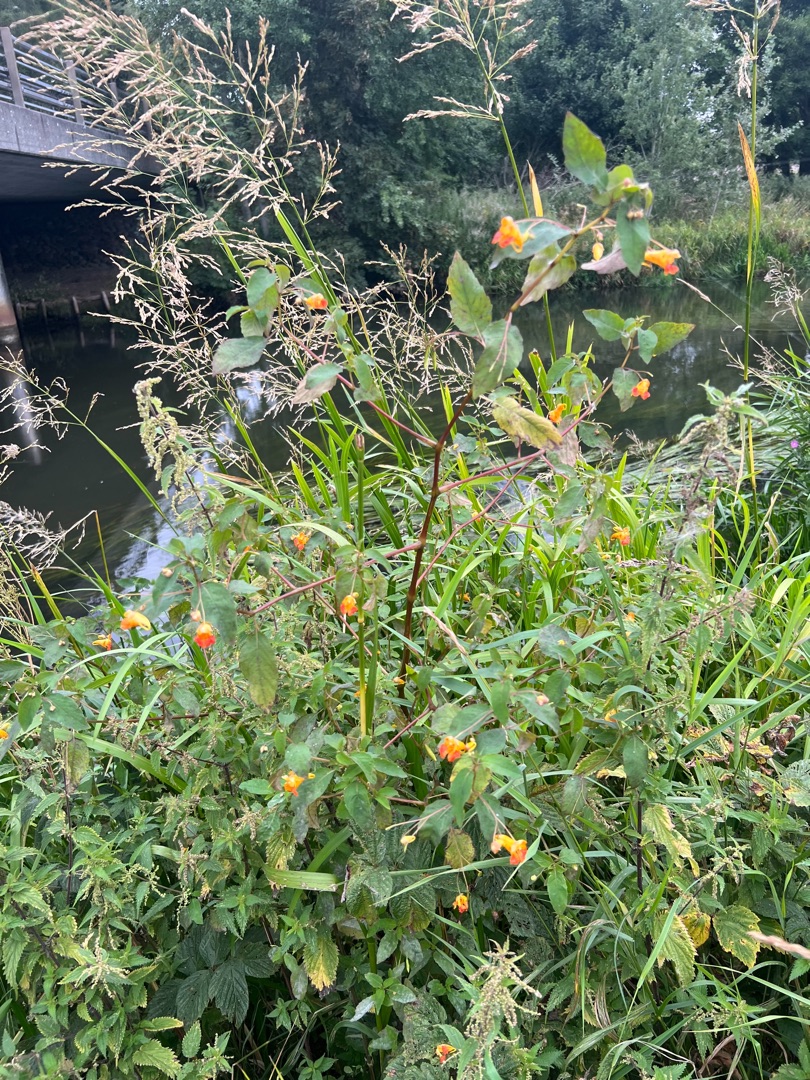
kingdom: Plantae
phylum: Tracheophyta
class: Magnoliopsida
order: Ericales
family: Balsaminaceae
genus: Impatiens
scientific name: Impatiens capensis
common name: Orange-balsamin
